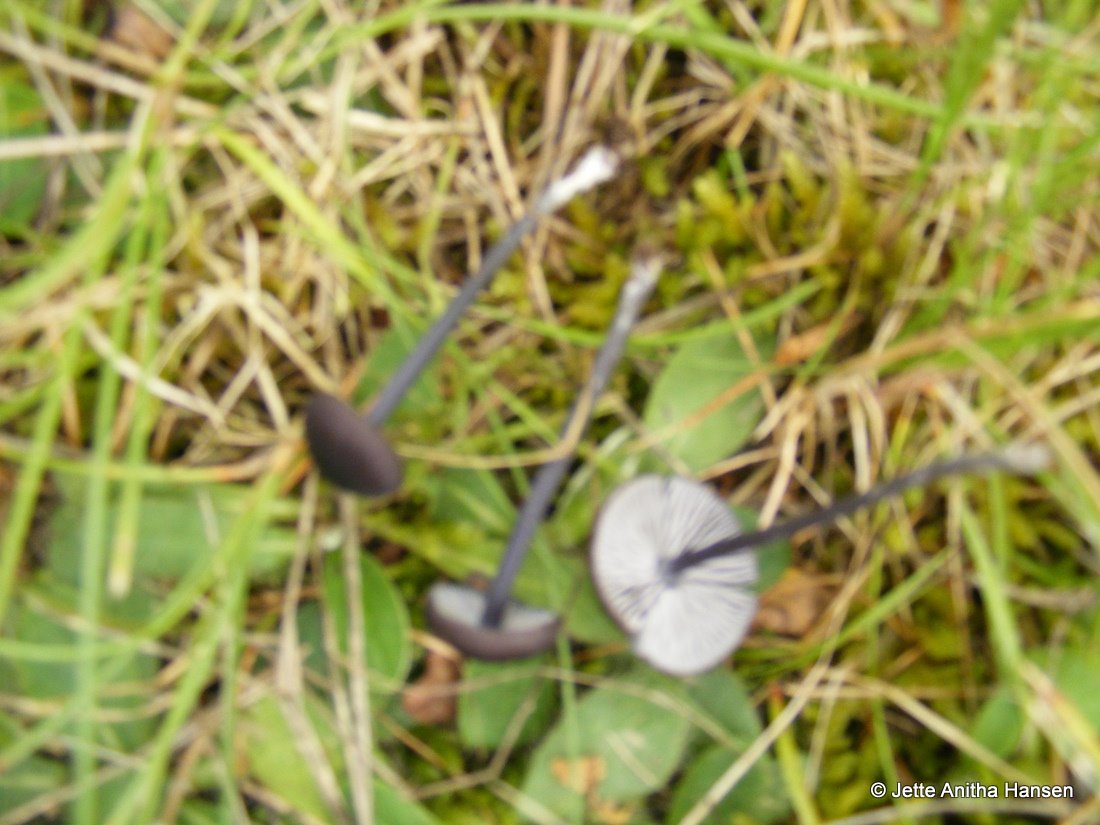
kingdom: Fungi
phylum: Basidiomycota
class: Agaricomycetes
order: Agaricales
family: Entolomataceae
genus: Entoloma
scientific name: Entoloma chalybeum
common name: blåbladet rødblad
